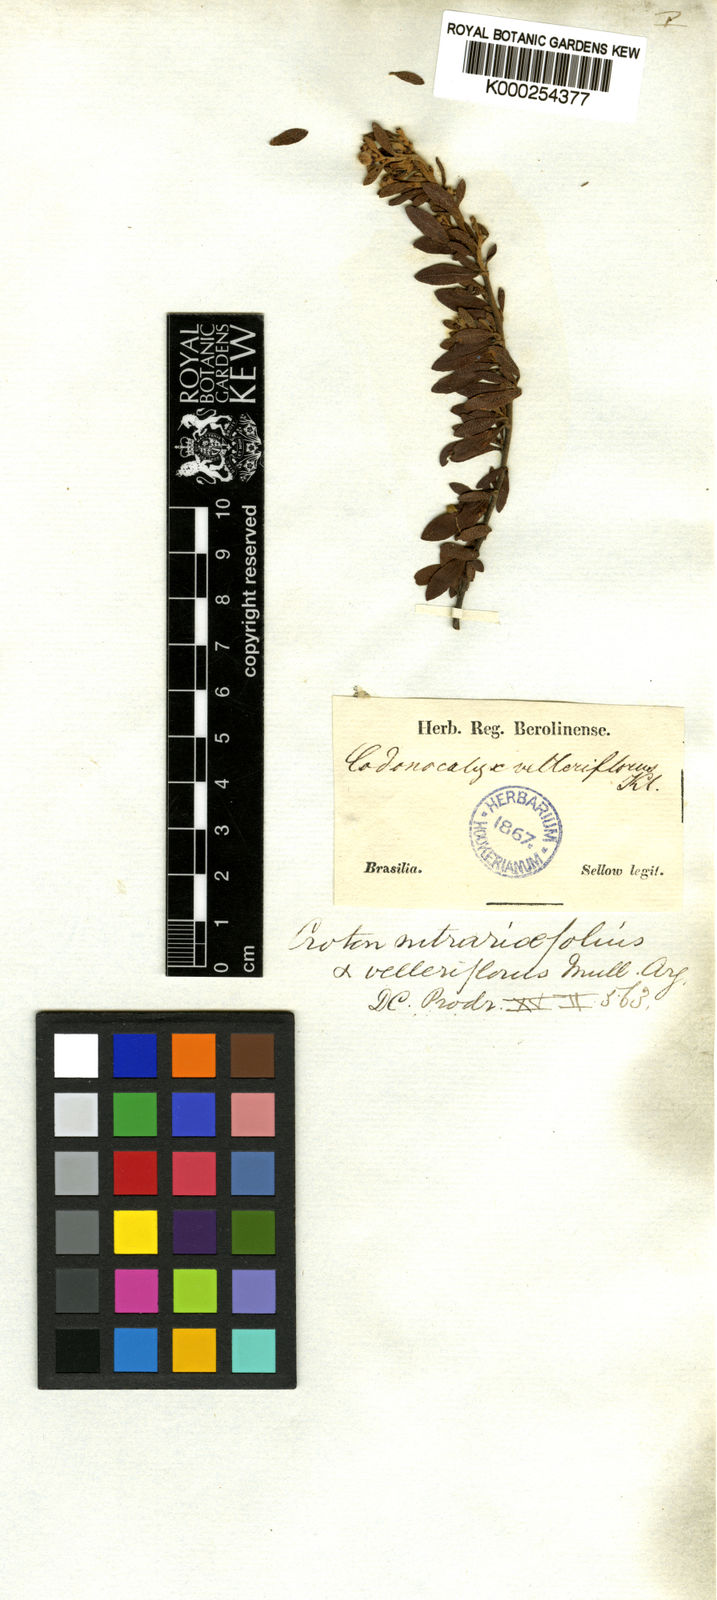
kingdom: Plantae
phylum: Tracheophyta
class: Magnoliopsida
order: Malpighiales
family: Euphorbiaceae
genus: Croton
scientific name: Croton nitrariifolius
